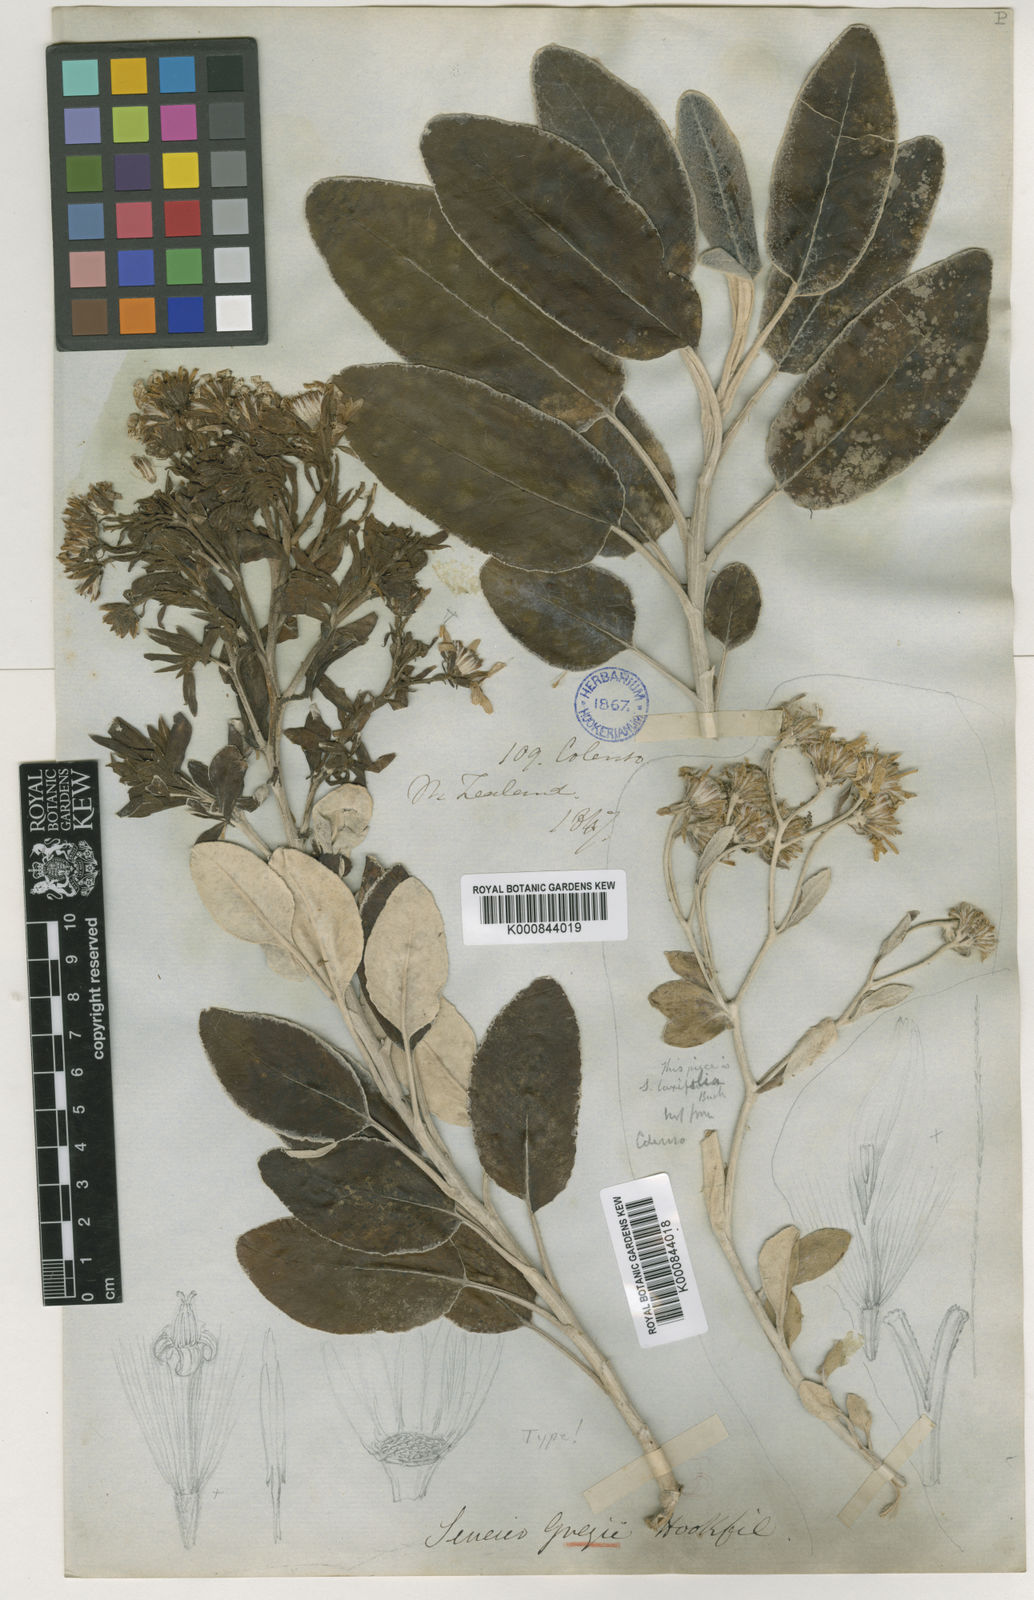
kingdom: Plantae
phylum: Tracheophyta
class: Magnoliopsida
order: Asterales
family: Asteraceae
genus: Brachyglottis
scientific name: Brachyglottis greyi
